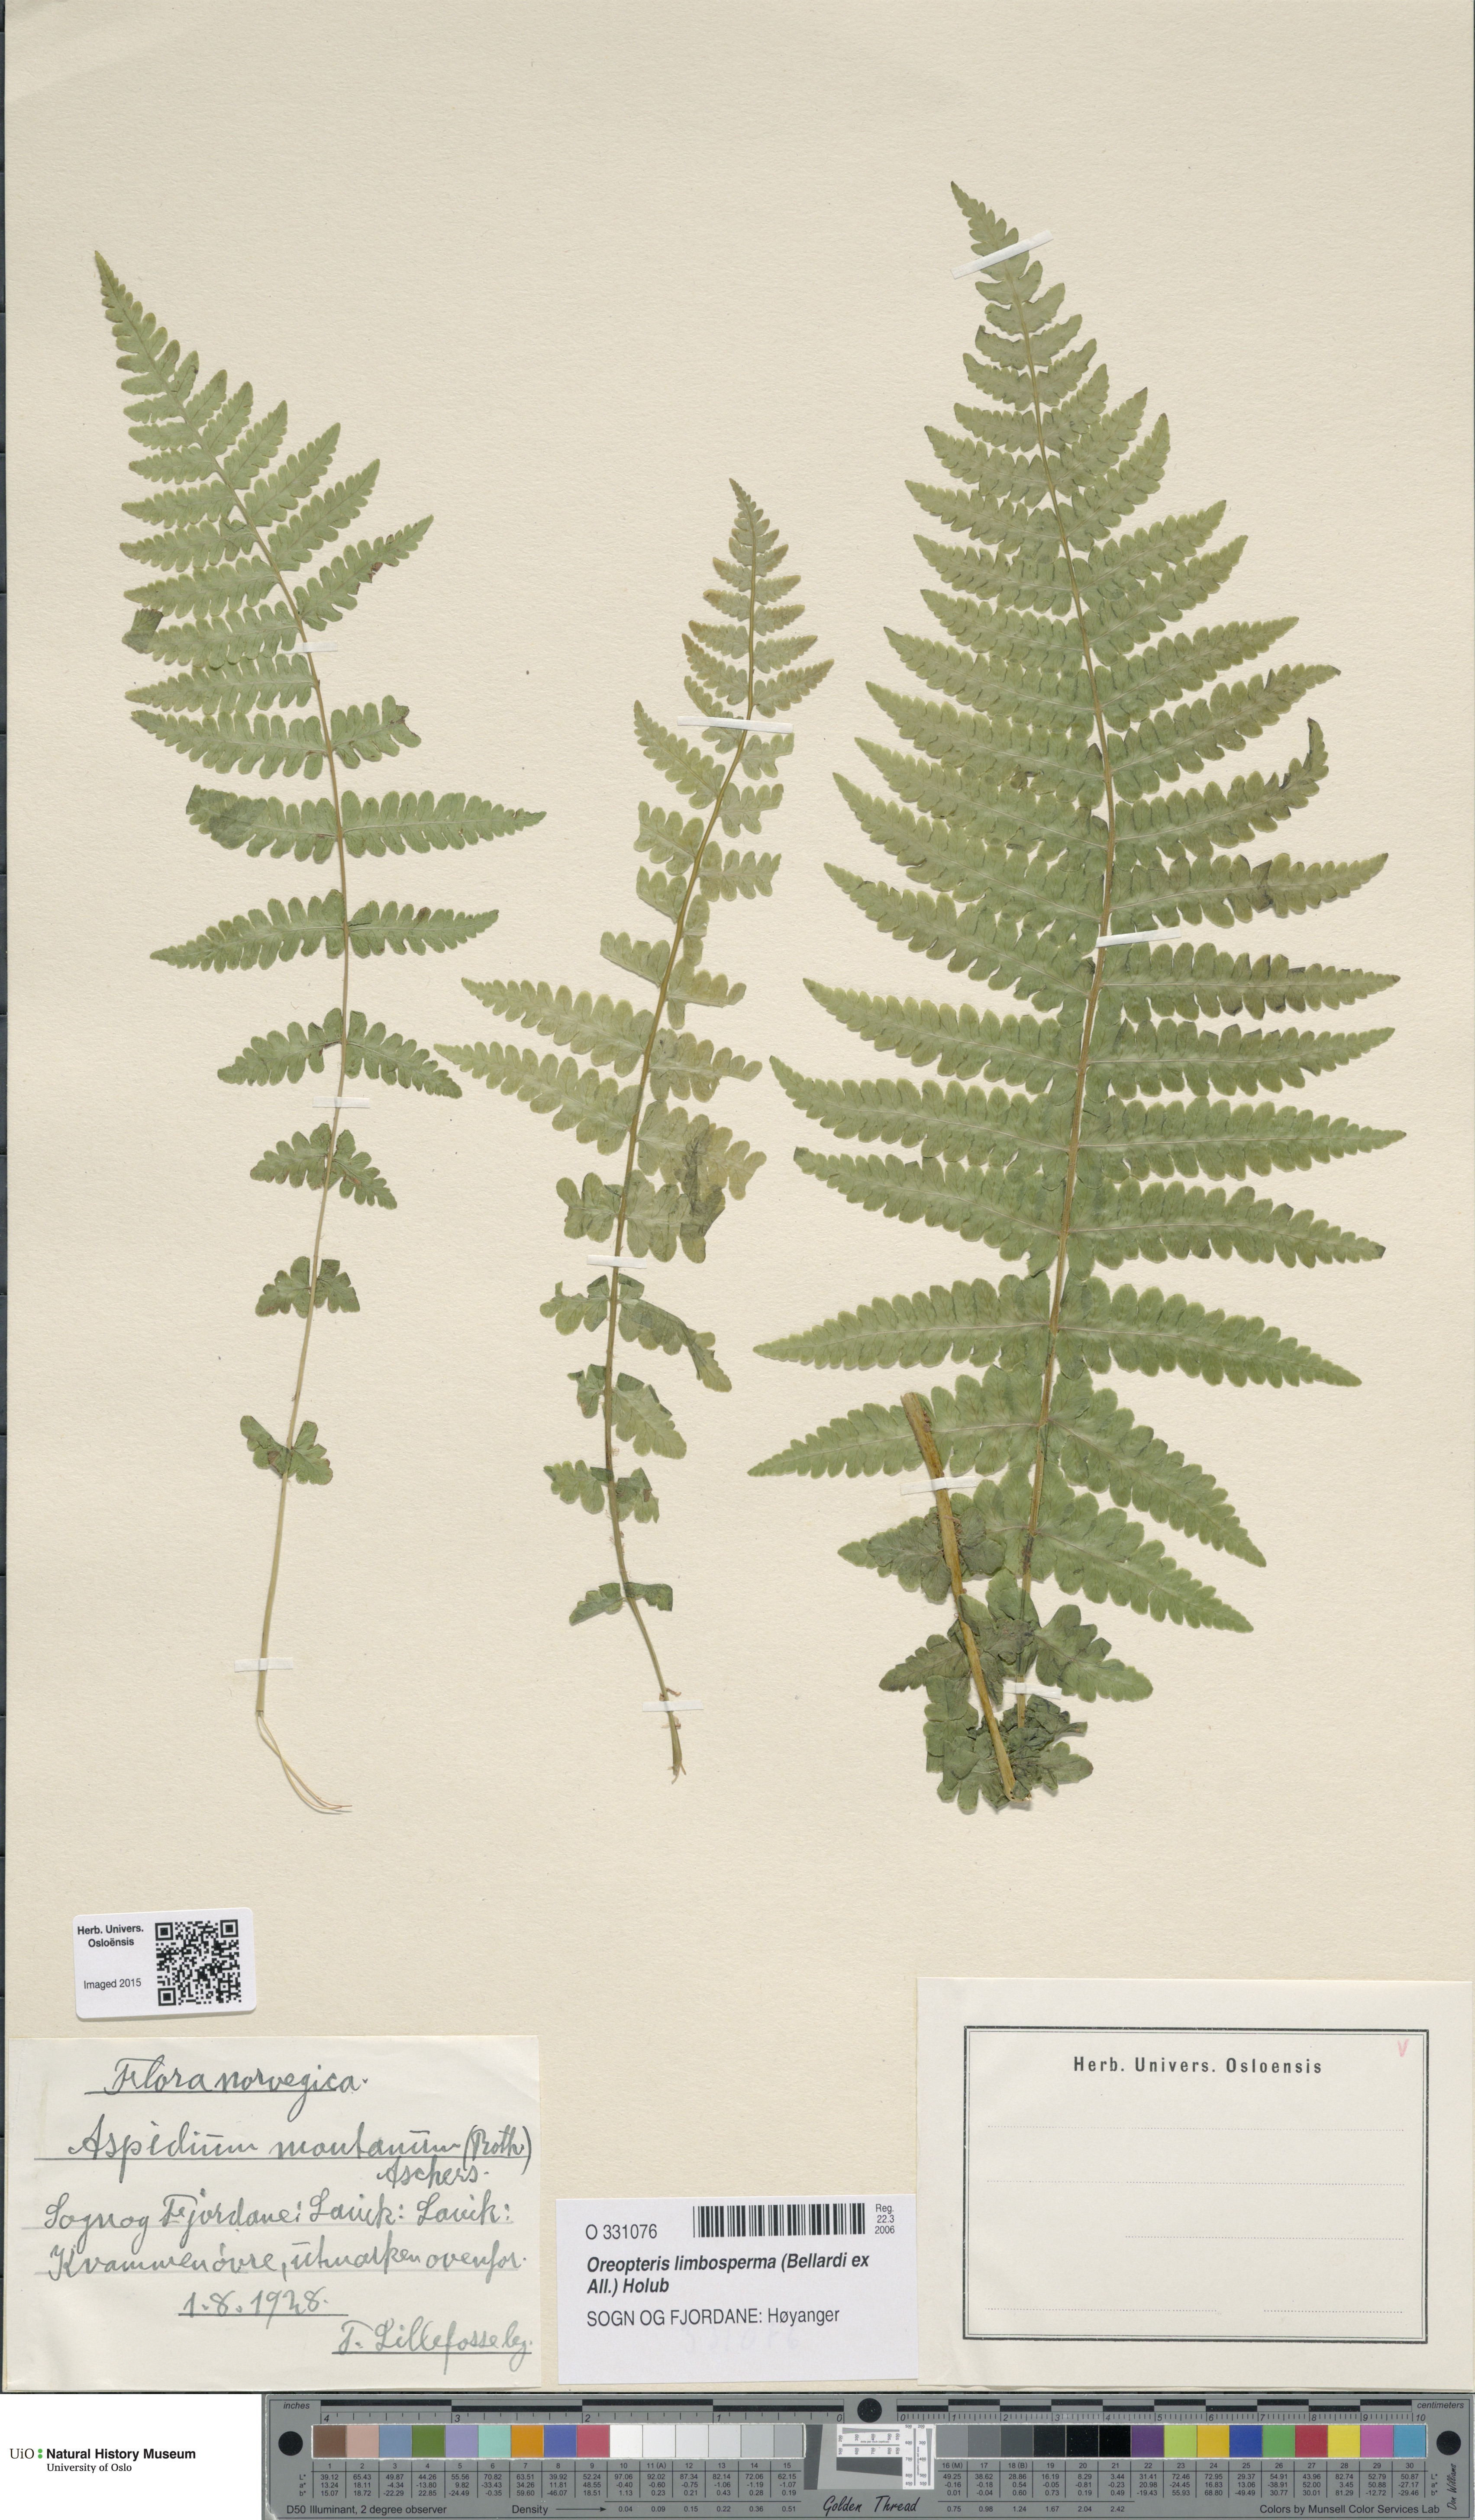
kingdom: Plantae
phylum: Tracheophyta
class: Polypodiopsida
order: Polypodiales
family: Thelypteridaceae
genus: Oreopteris
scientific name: Oreopteris limbosperma
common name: Lemon-scented fern
